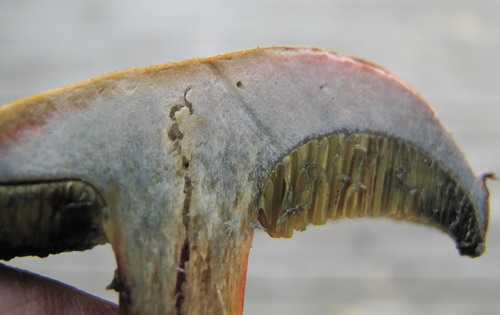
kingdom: Fungi
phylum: Basidiomycota
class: Agaricomycetes
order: Boletales
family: Boletaceae
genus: Hortiboletus
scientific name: Hortiboletus bubalinus
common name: aurora-rørhat
